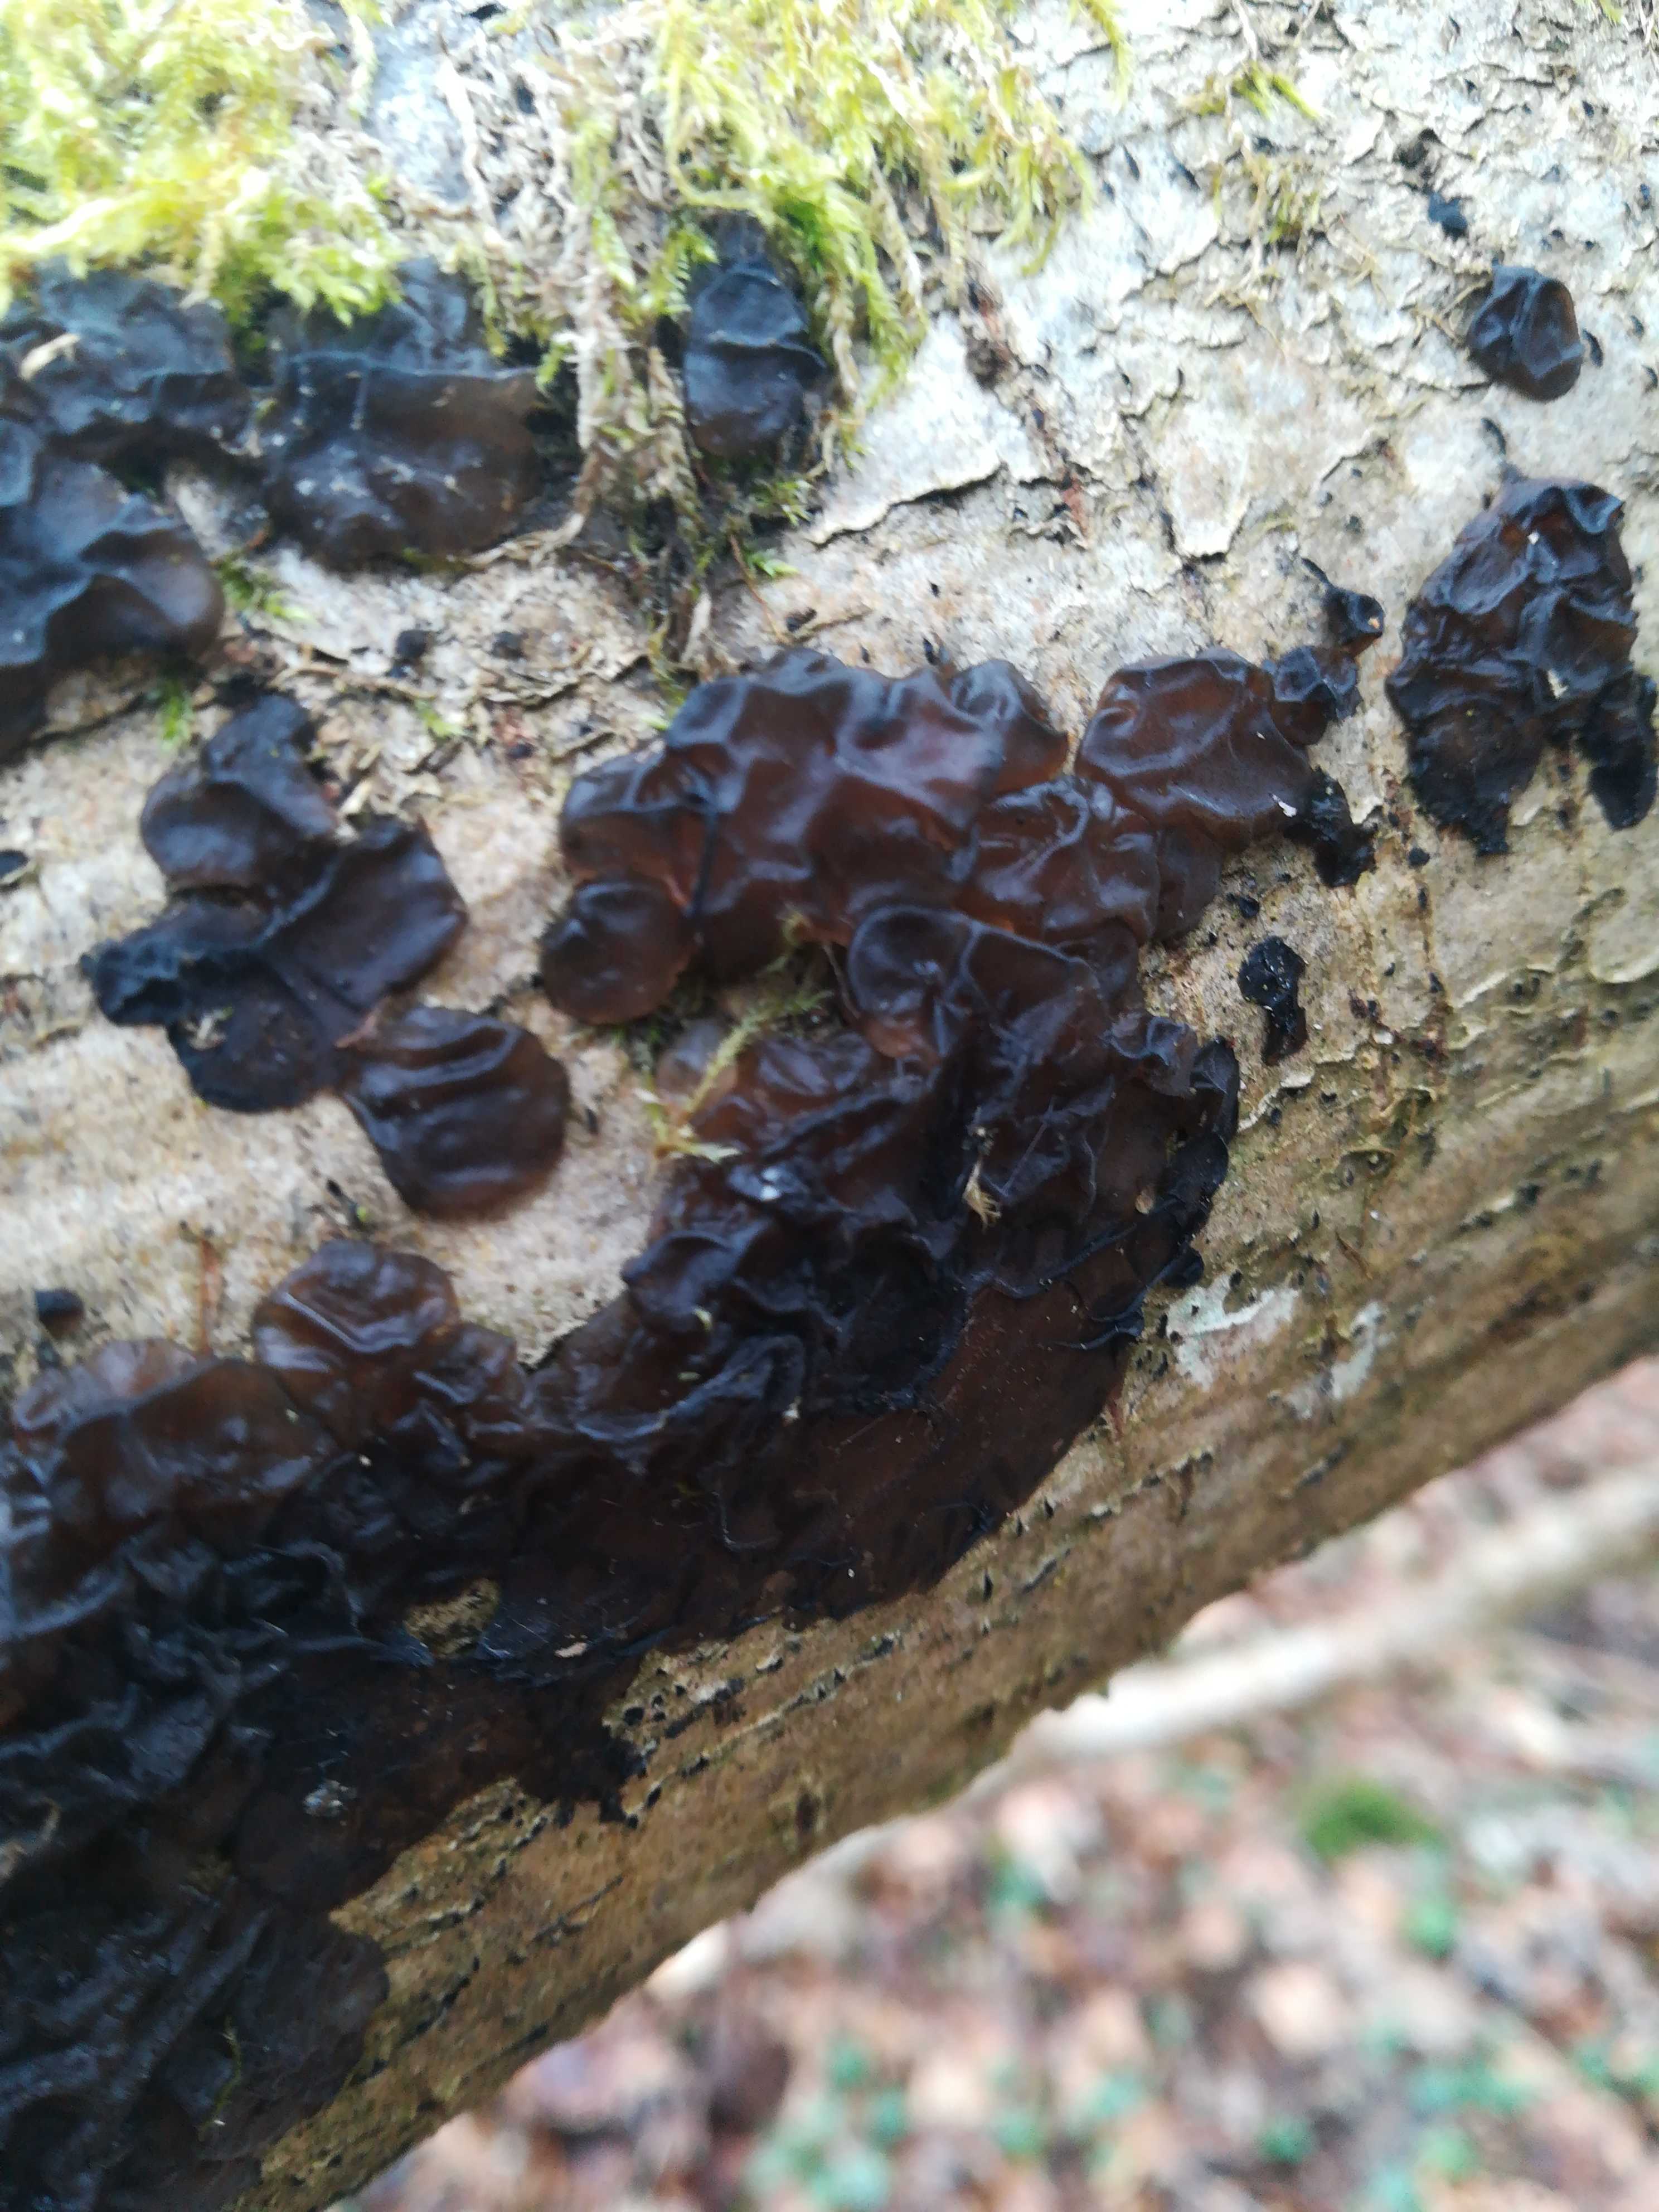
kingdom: Fungi
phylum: Basidiomycota
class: Agaricomycetes
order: Auriculariales
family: Auriculariaceae
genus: Exidia
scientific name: Exidia nigricans
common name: almindelig bævretop
